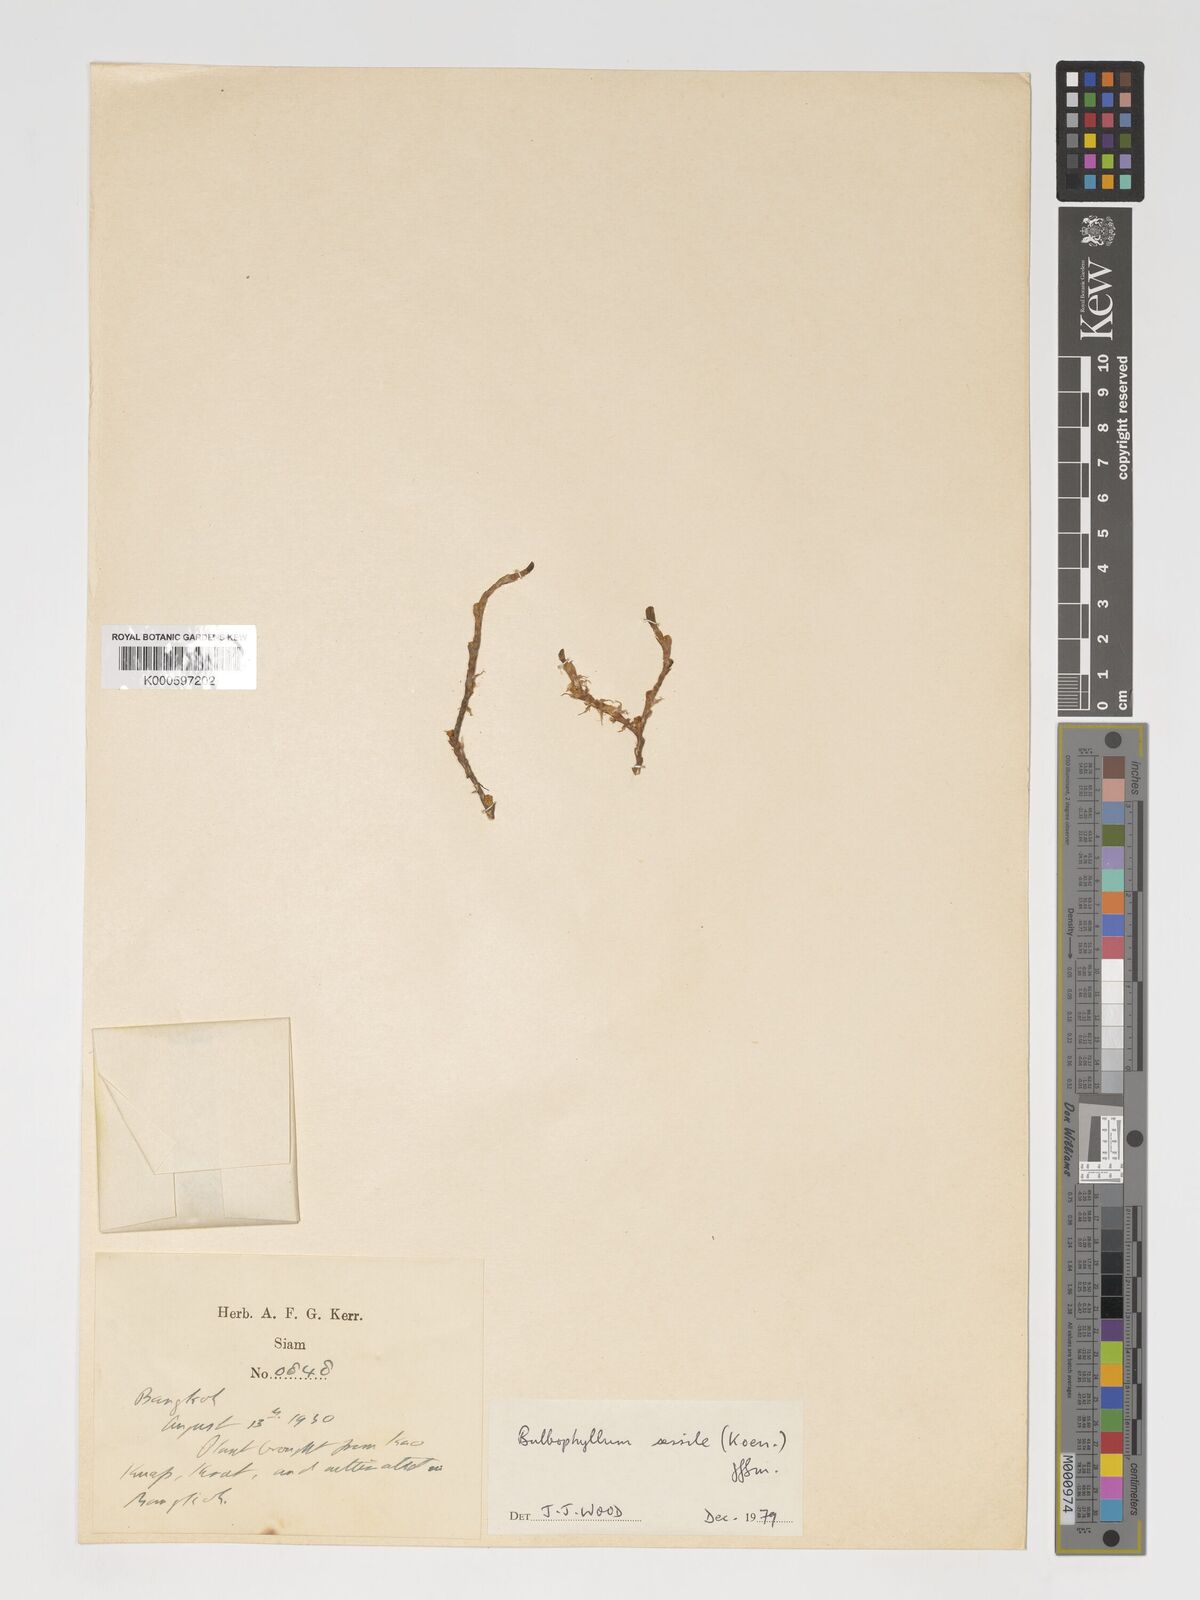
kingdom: Plantae
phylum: Tracheophyta
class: Liliopsida
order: Asparagales
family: Orchidaceae
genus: Bulbophyllum
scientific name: Bulbophyllum clandestinum
